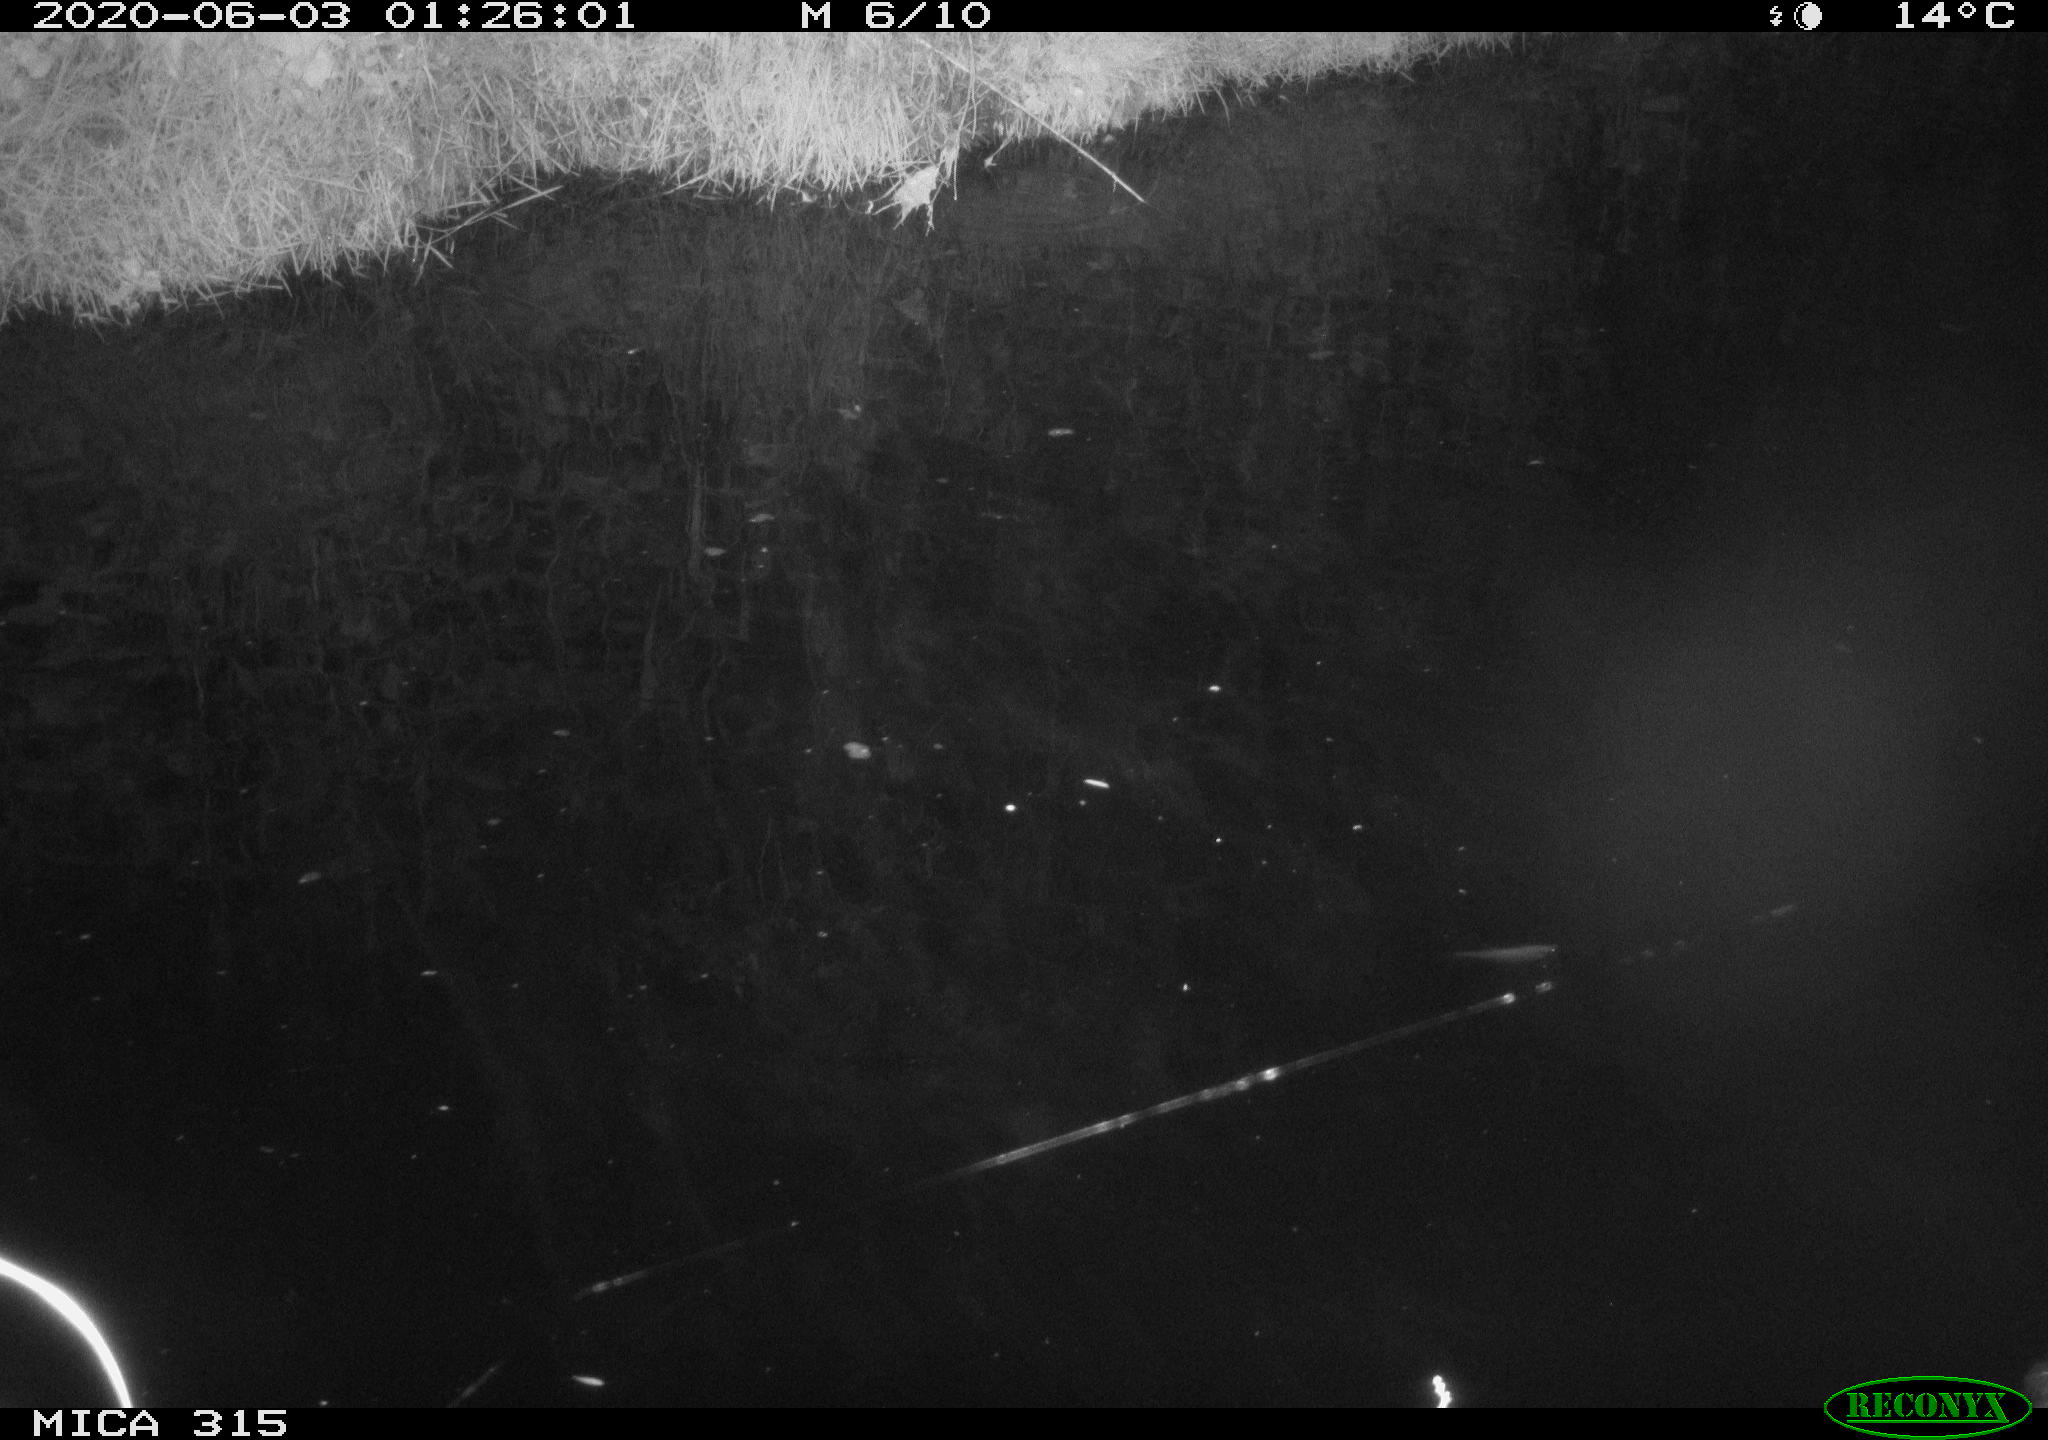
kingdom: Animalia
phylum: Chordata
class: Aves
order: Anseriformes
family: Anatidae
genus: Anas
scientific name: Anas platyrhynchos
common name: Mallard
